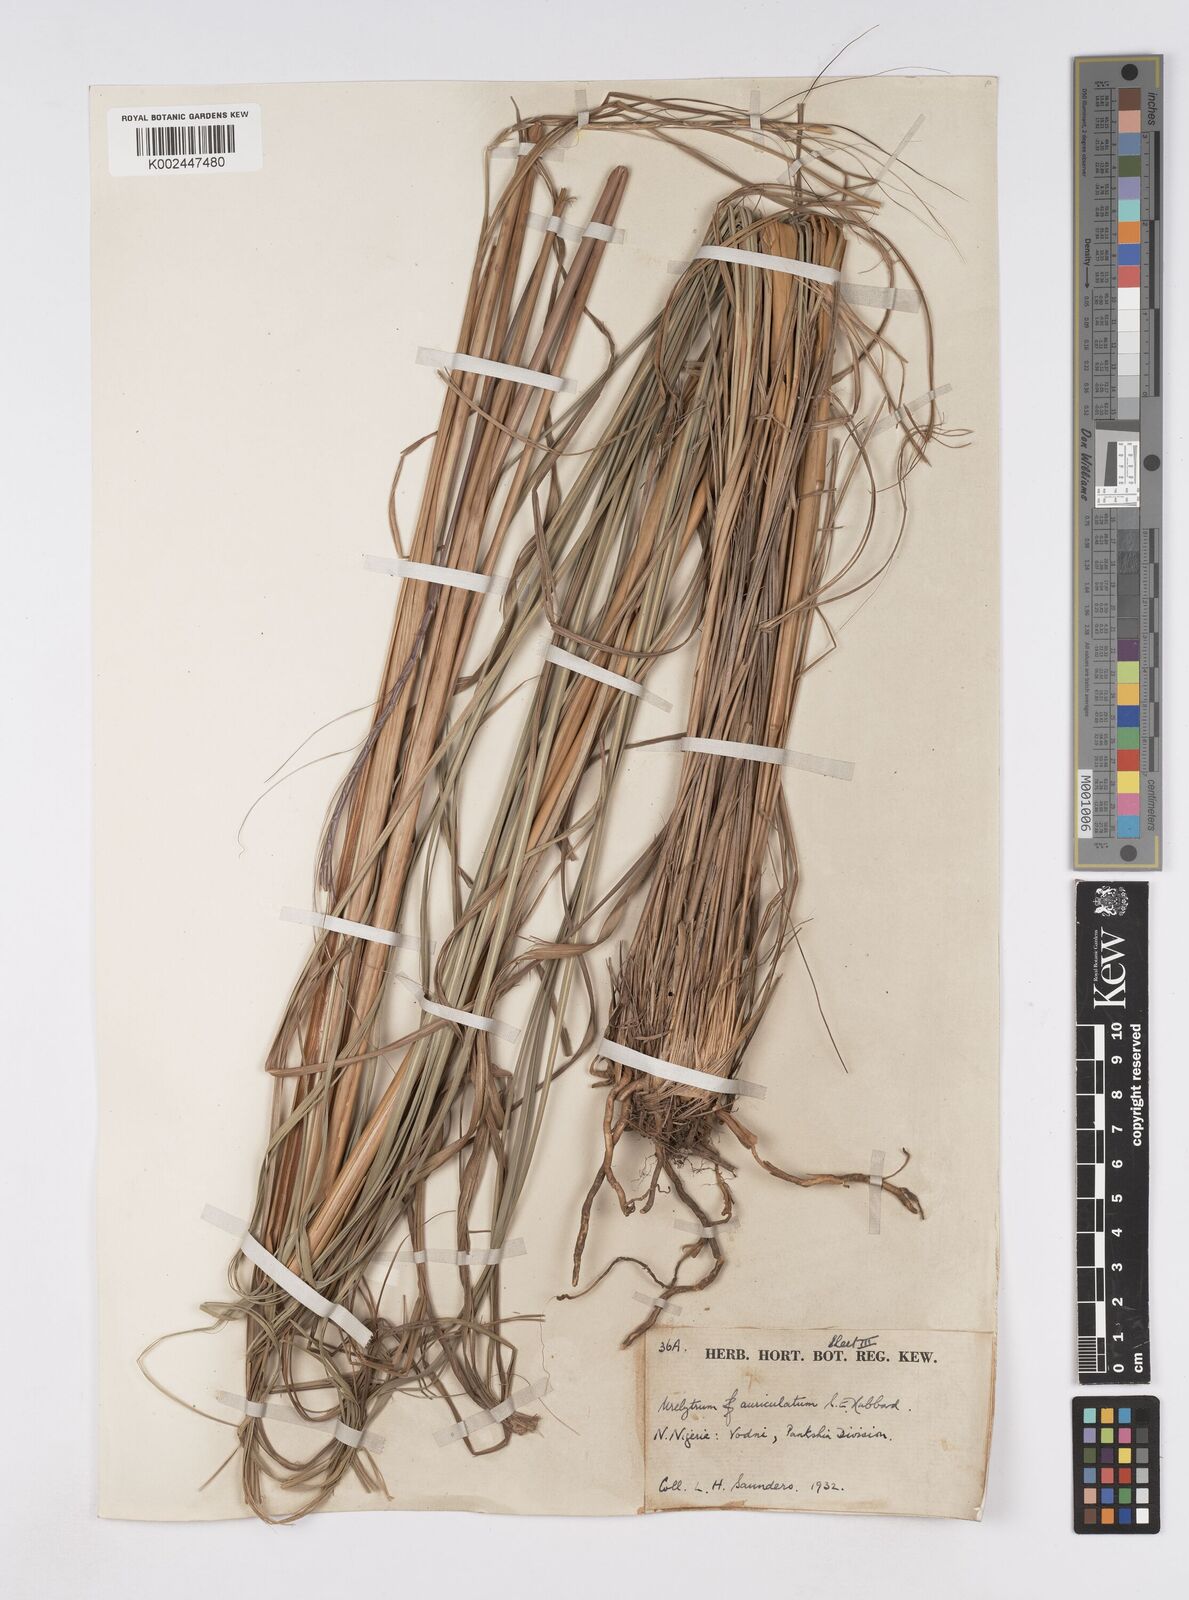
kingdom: Plantae
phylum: Tracheophyta
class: Liliopsida
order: Poales
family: Poaceae
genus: Urelytrum
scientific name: Urelytrum auriculatum
